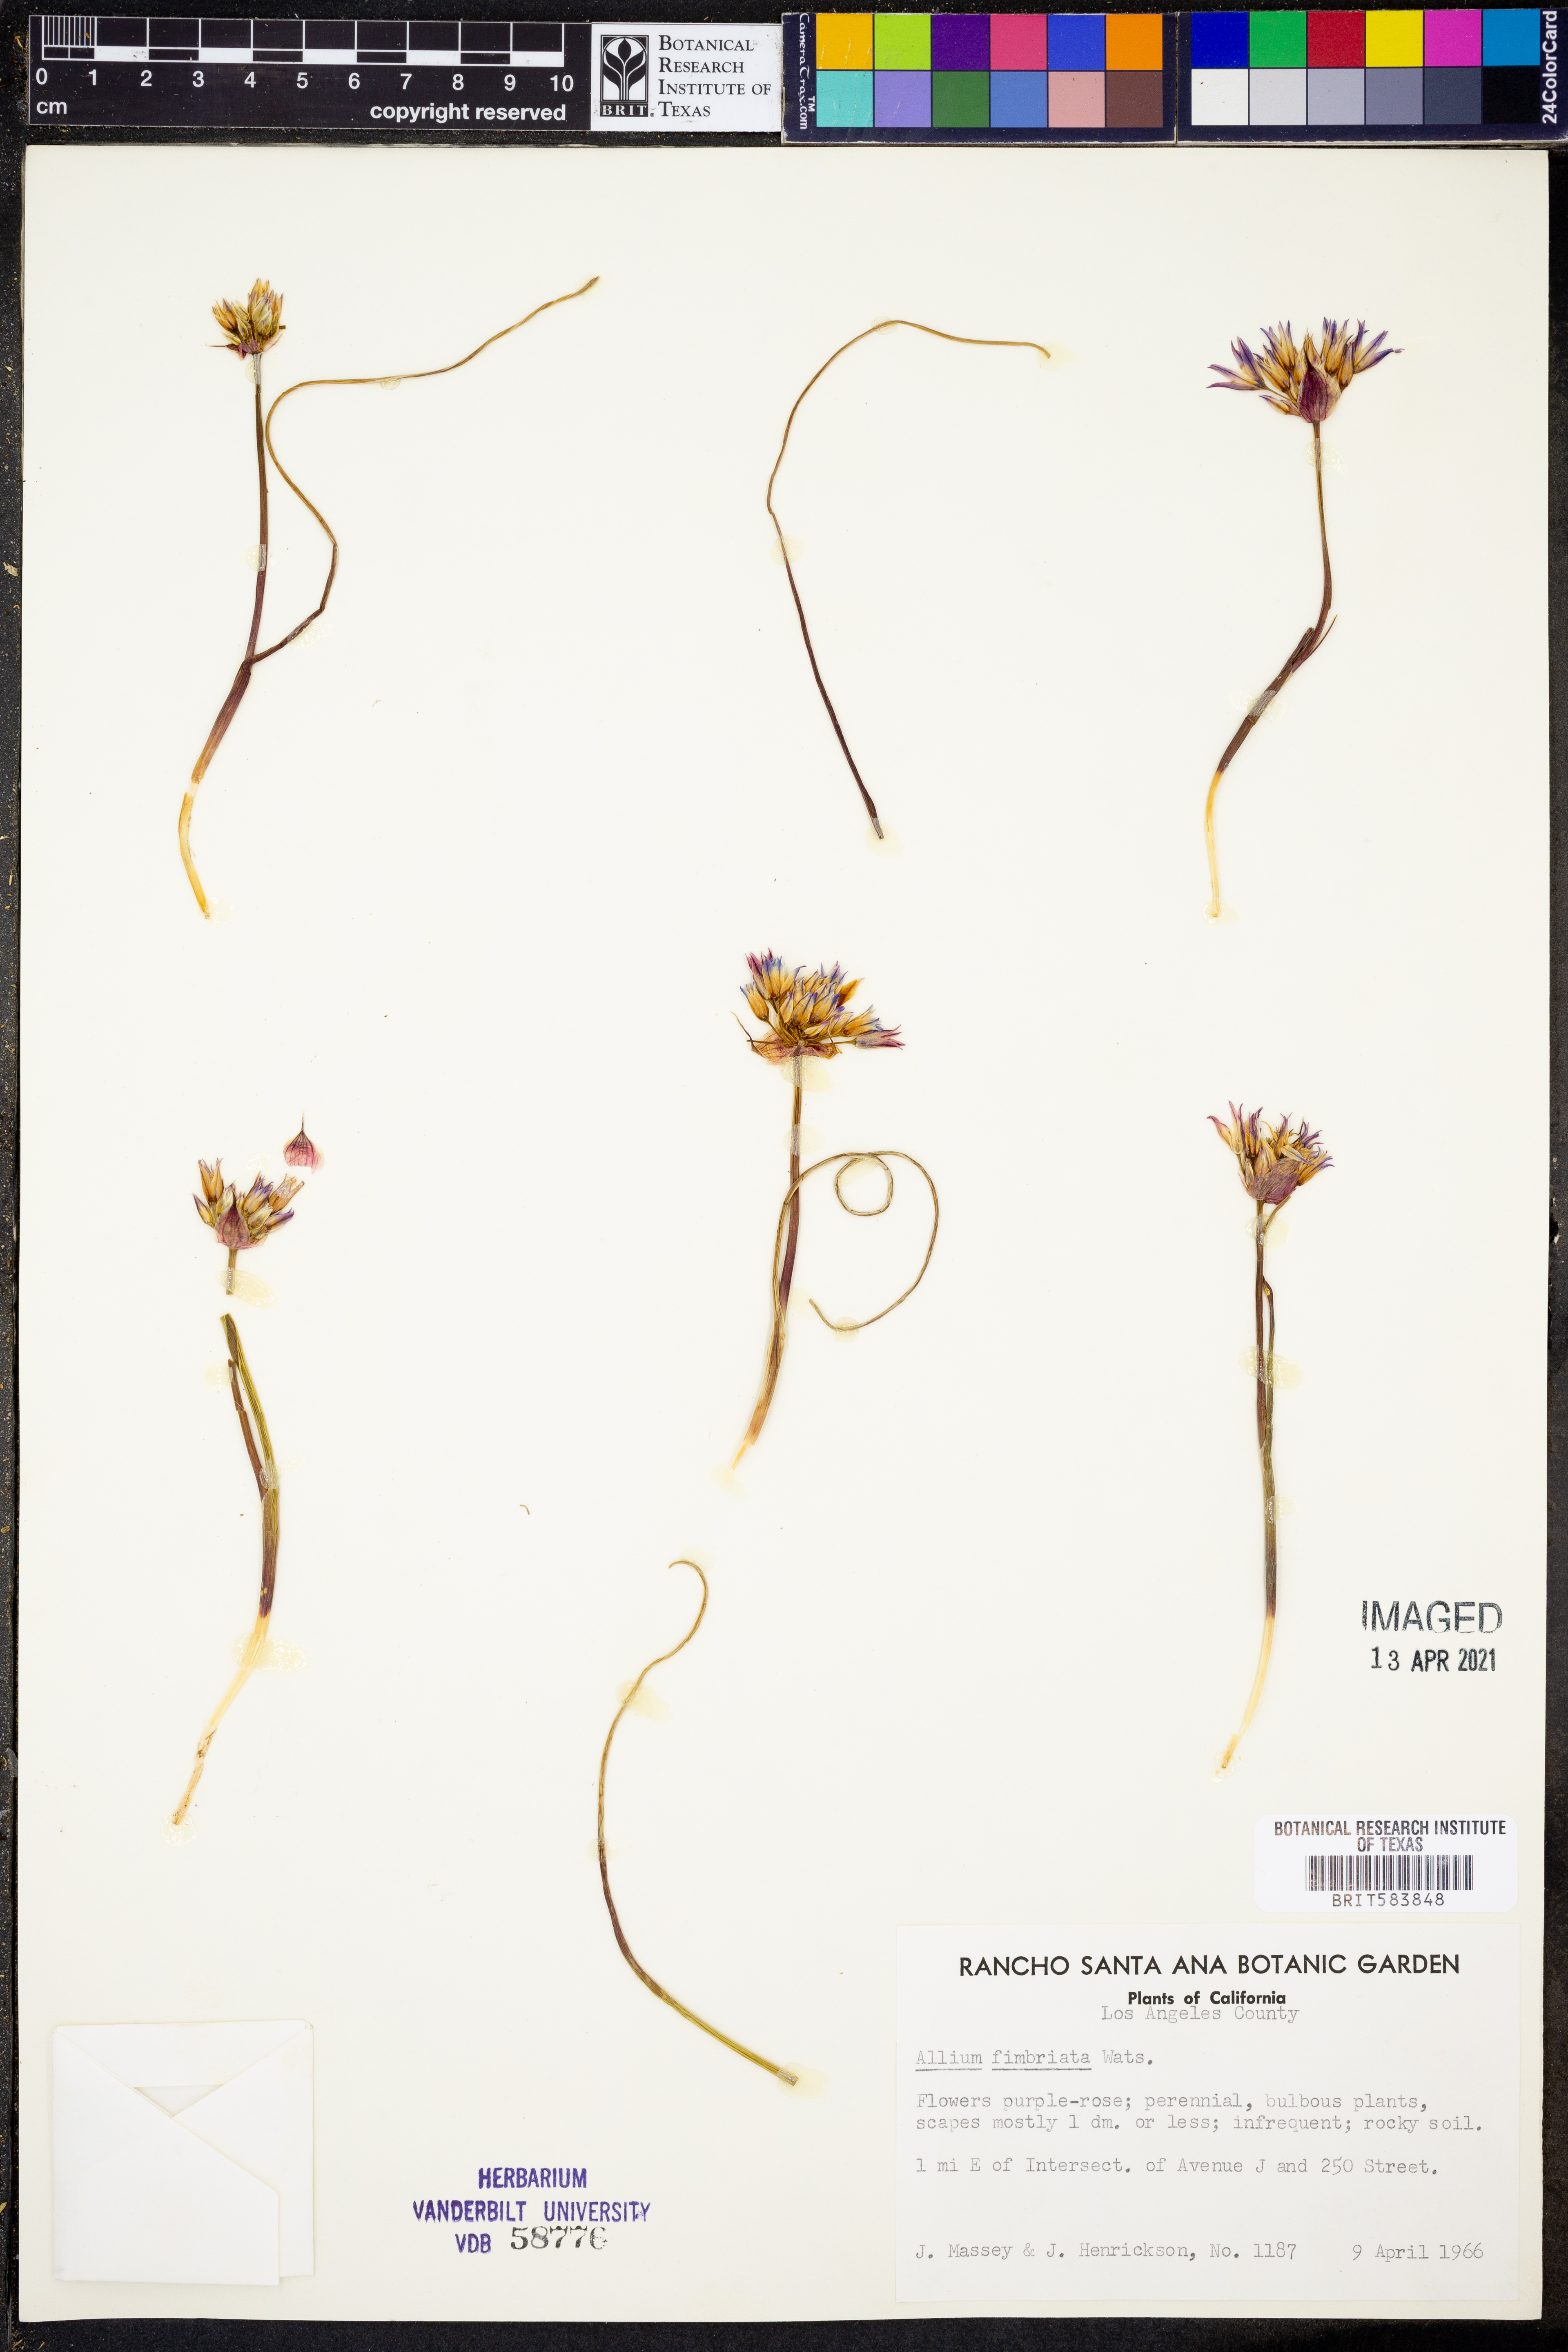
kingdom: Plantae
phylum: Tracheophyta
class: Liliopsida
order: Asparagales
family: Amaryllidaceae
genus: Allium
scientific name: Allium callidyction
